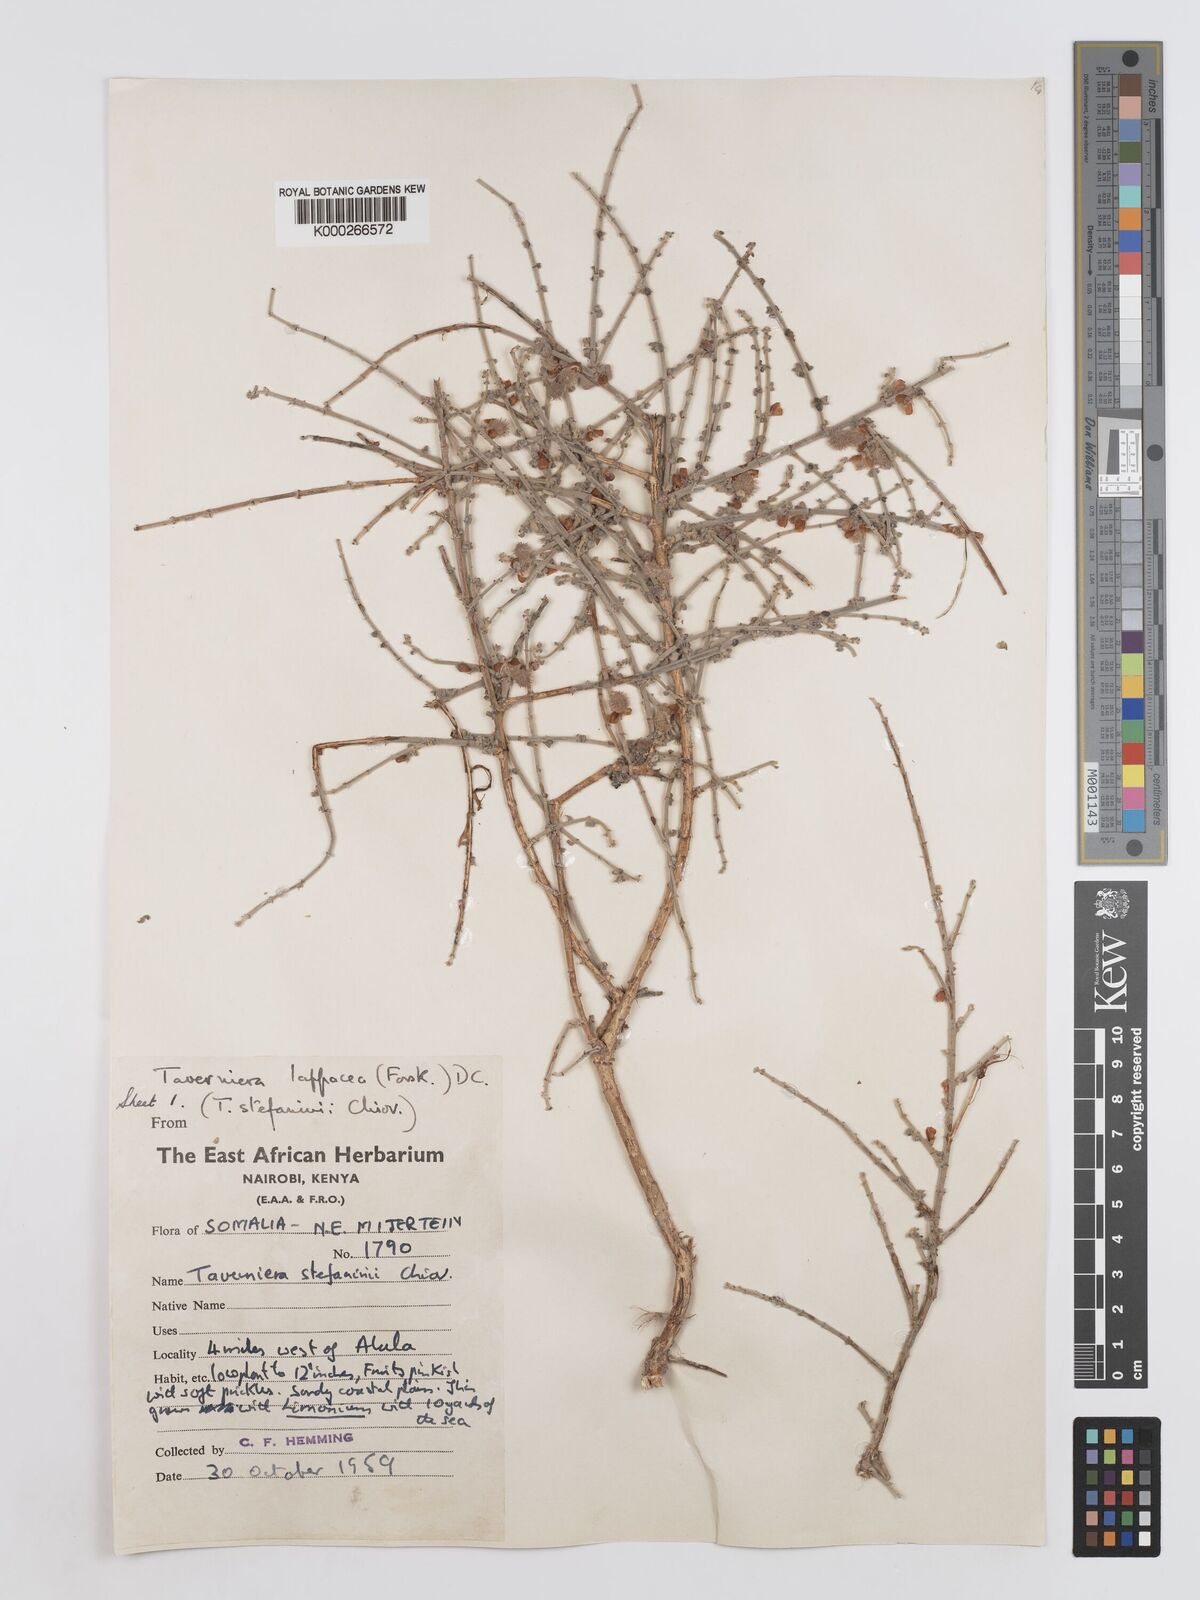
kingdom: Plantae
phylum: Tracheophyta
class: Magnoliopsida
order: Fabales
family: Fabaceae
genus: Taverniera
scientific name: Taverniera lappacea
